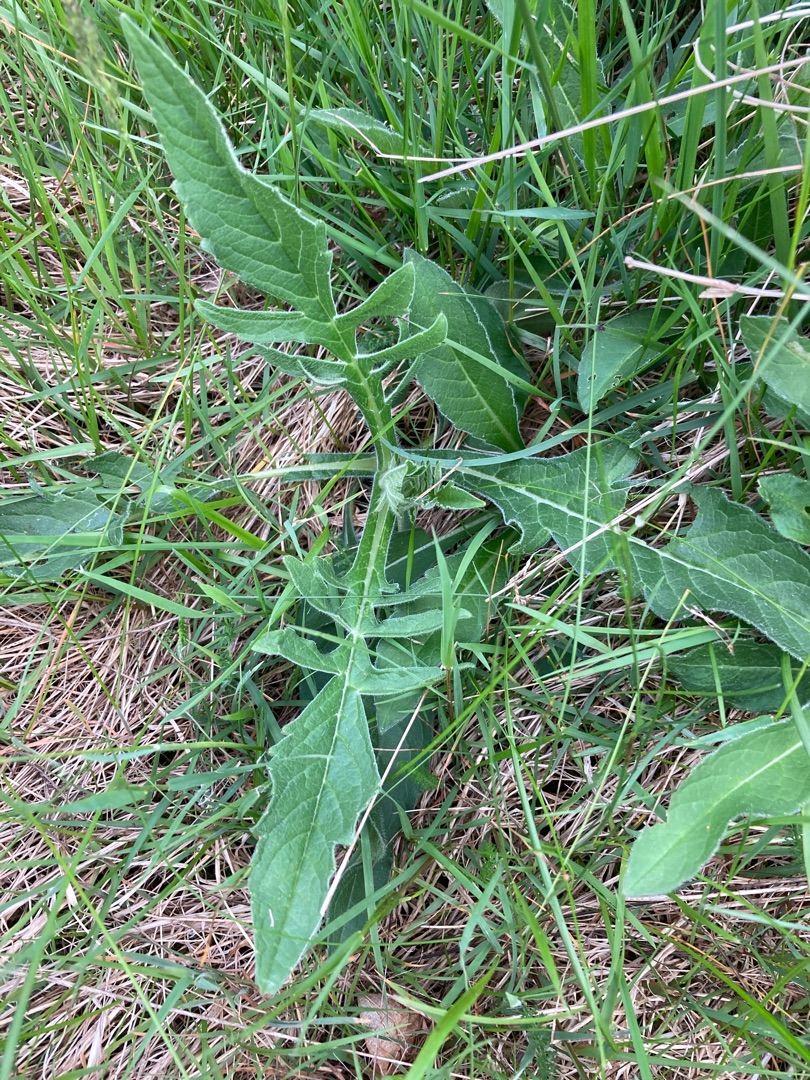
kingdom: Plantae
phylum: Tracheophyta
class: Magnoliopsida
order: Dipsacales
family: Caprifoliaceae
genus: Knautia
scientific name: Knautia arvensis
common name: Blåhat
